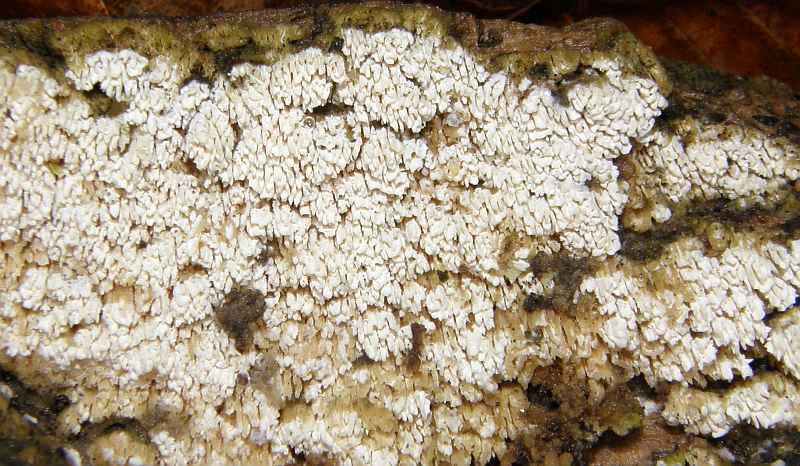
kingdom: Fungi
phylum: Basidiomycota
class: Agaricomycetes
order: Hymenochaetales
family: Schizoporaceae
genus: Schizopora
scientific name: Schizopora paradoxa
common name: hvid tandsvamp
